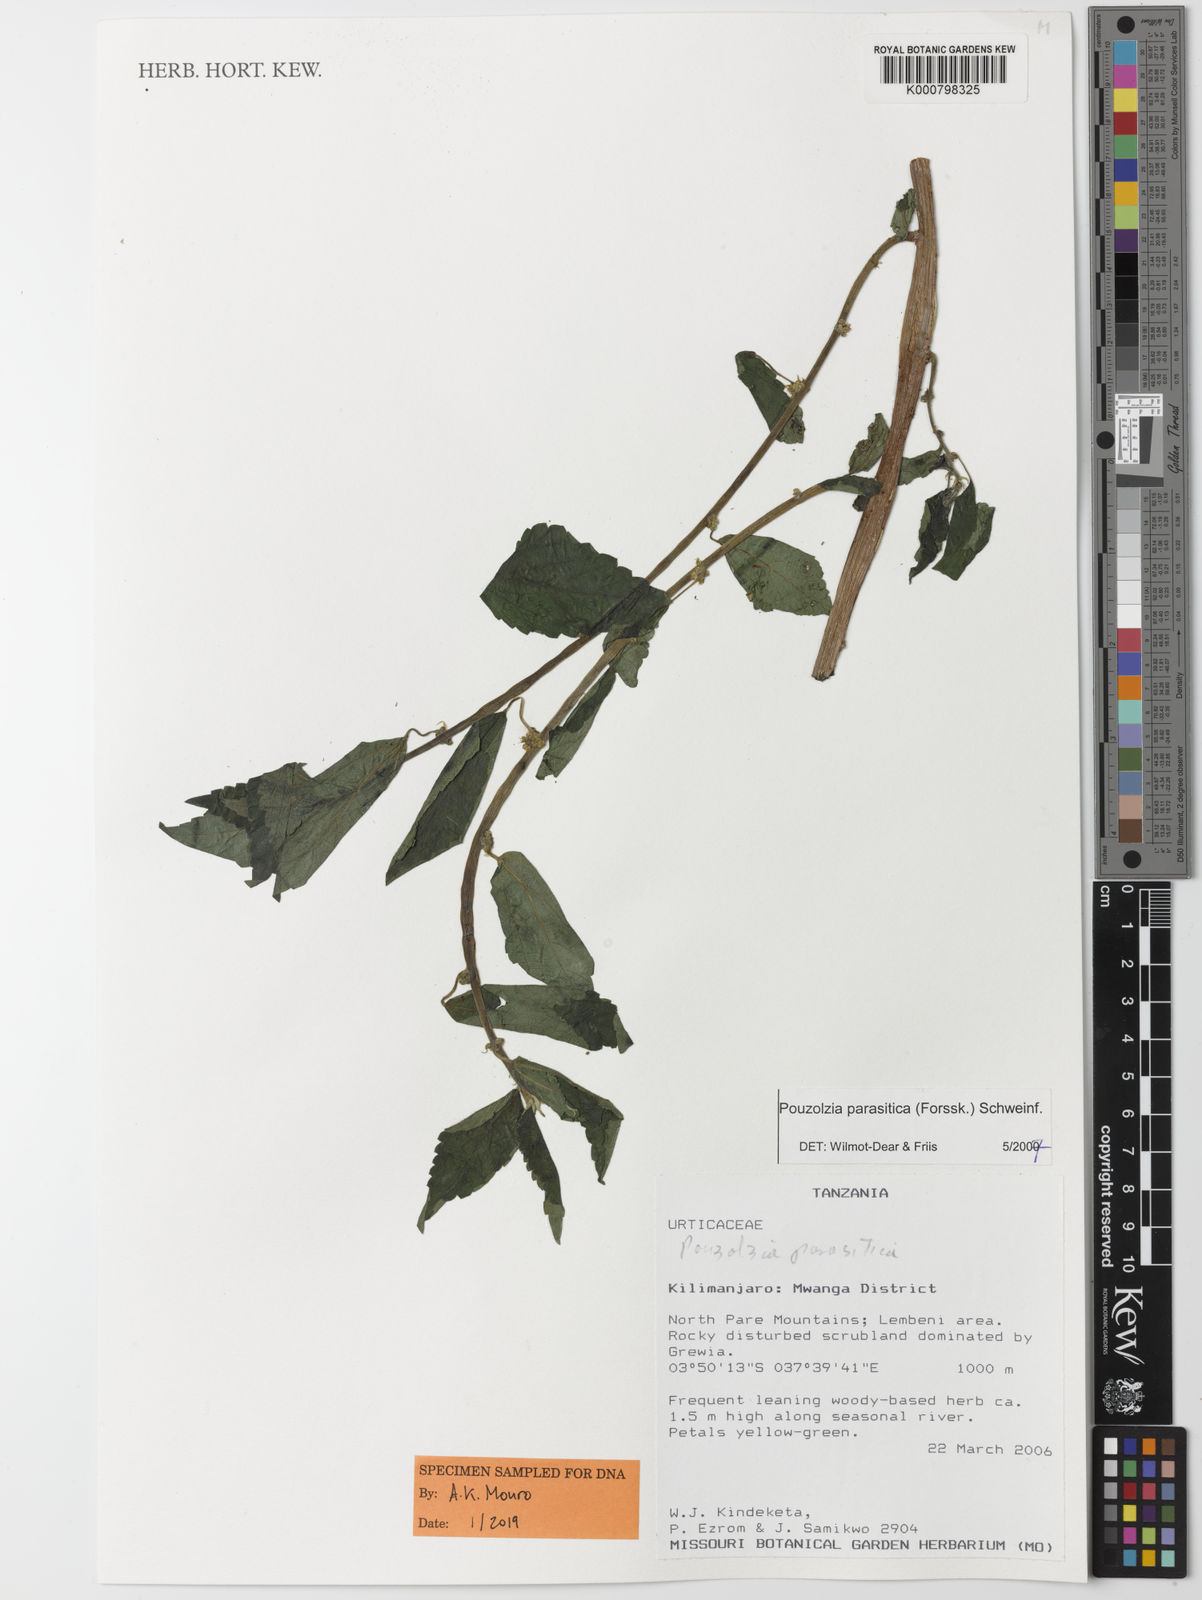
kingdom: Plantae
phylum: Tracheophyta
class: Magnoliopsida
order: Rosales
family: Urticaceae
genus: Pouzolzia
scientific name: Pouzolzia parasitica
